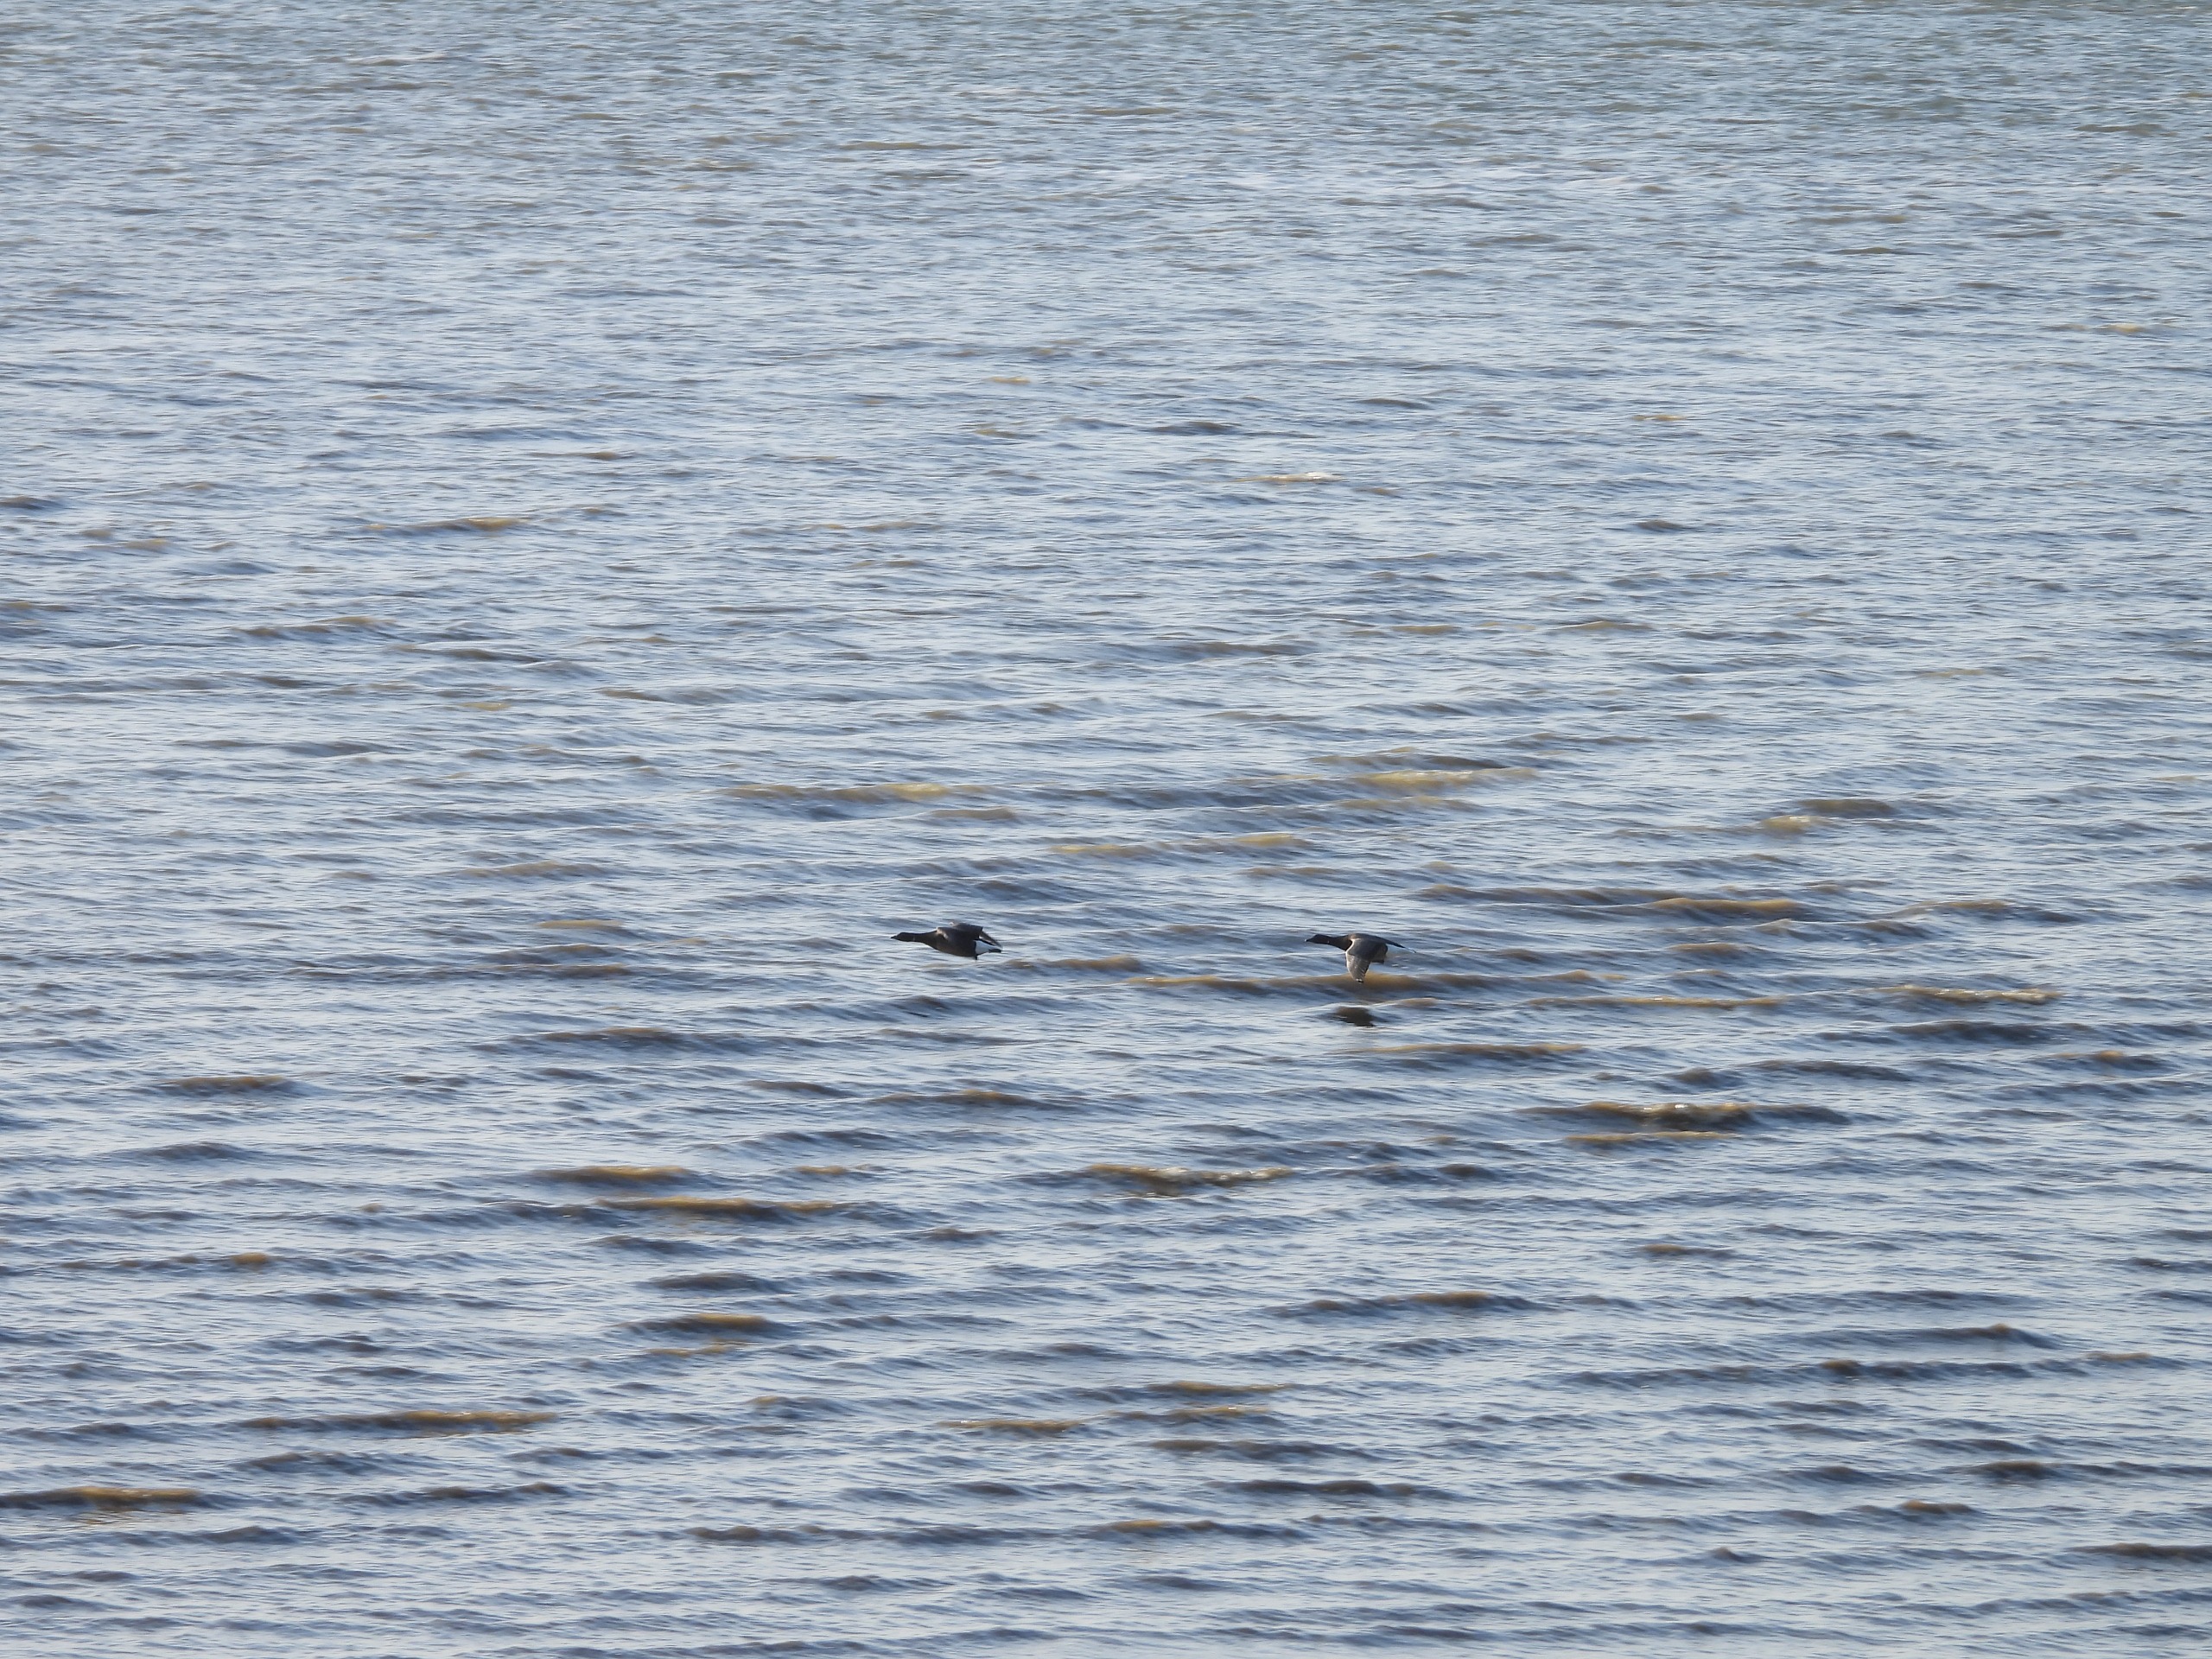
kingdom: Animalia
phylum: Chordata
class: Aves
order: Anseriformes
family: Anatidae
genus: Branta
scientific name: Branta bernicla
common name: Mørkbuget knortegås
